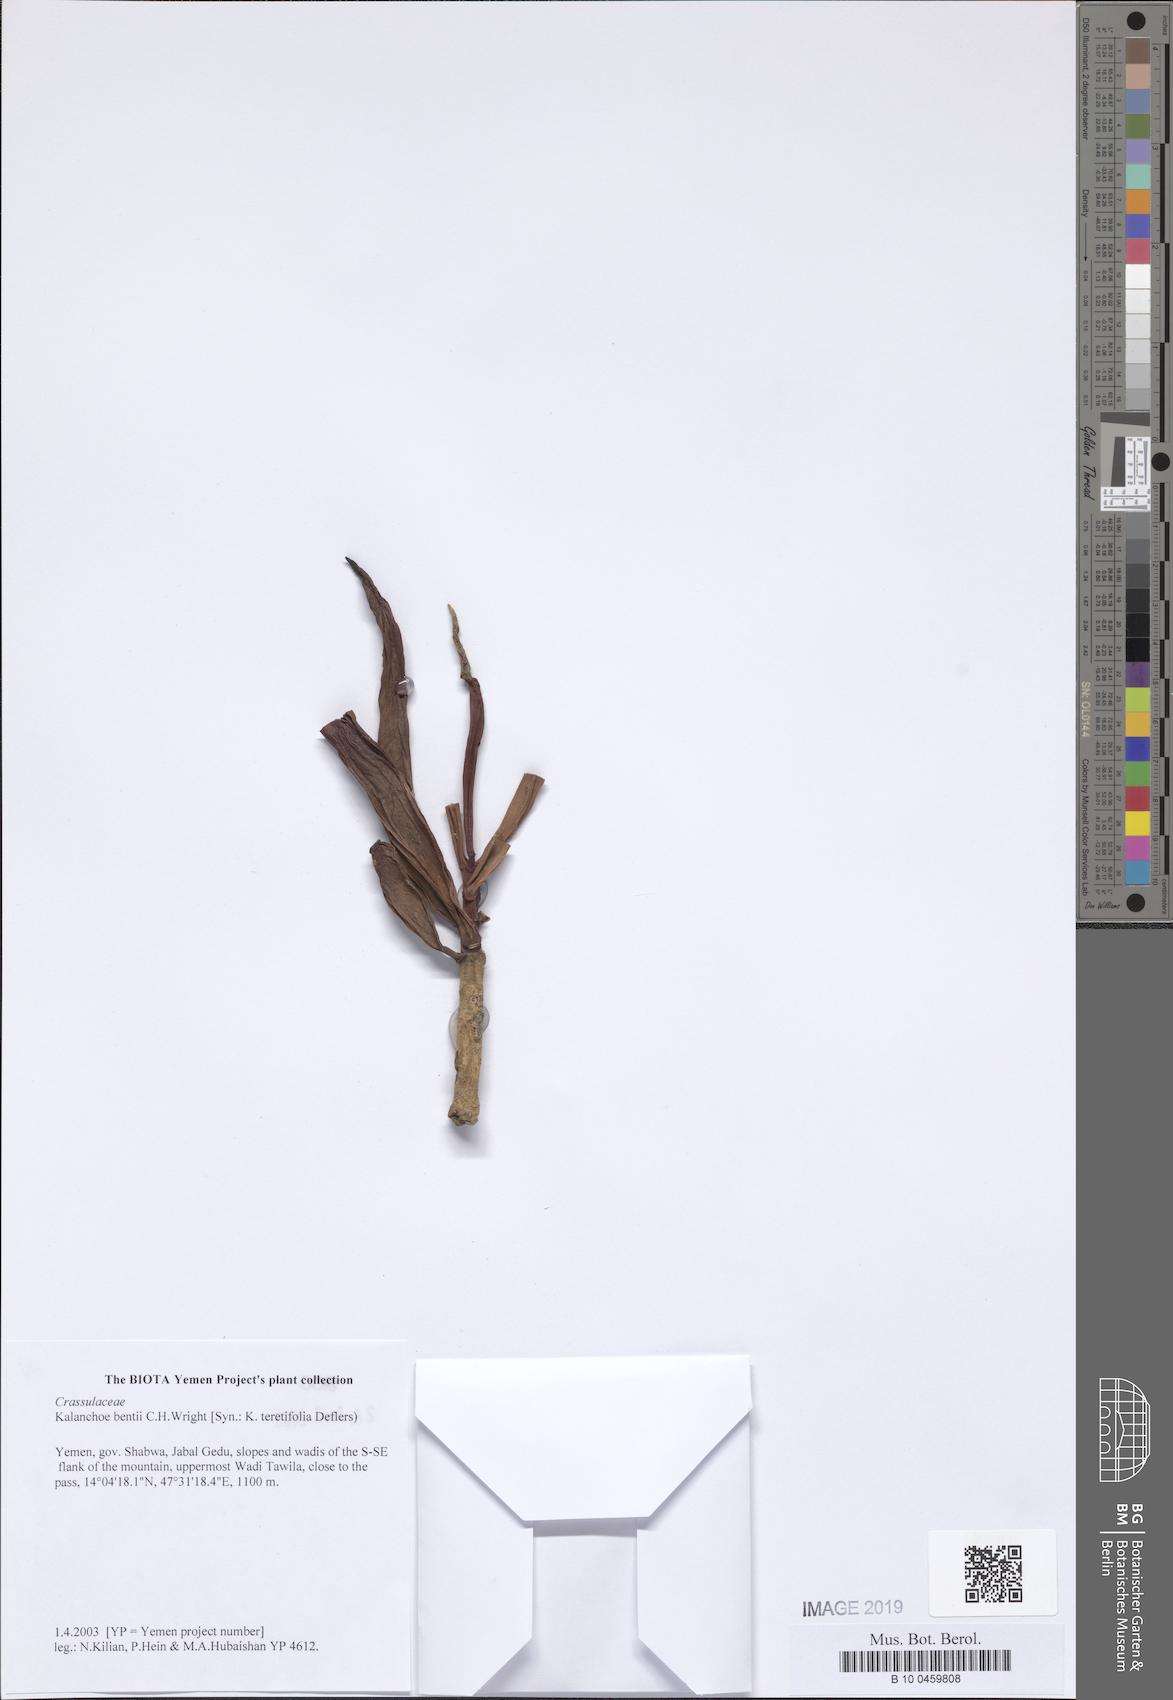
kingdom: Plantae
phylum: Tracheophyta
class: Magnoliopsida
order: Saxifragales
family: Crassulaceae
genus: Kalanchoe
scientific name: Kalanchoe bentii
